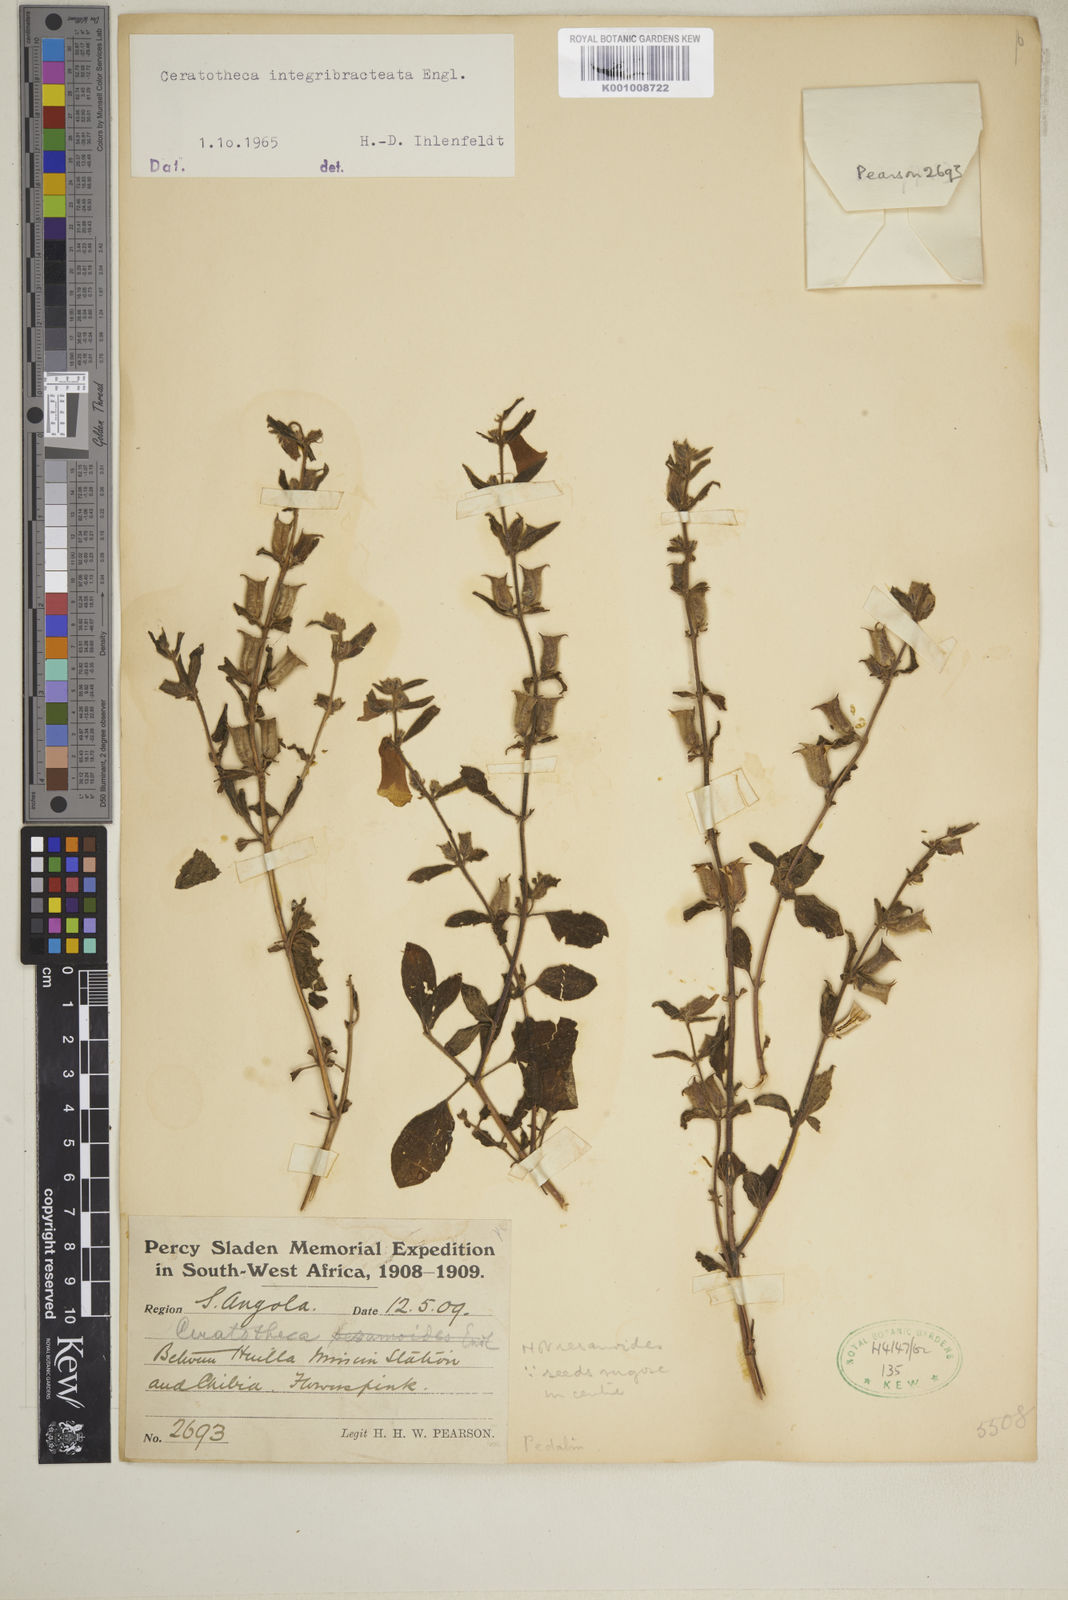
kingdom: Plantae
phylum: Tracheophyta
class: Magnoliopsida
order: Lamiales
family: Pedaliaceae
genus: Sesamum
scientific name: Sesamum integribracteatum
